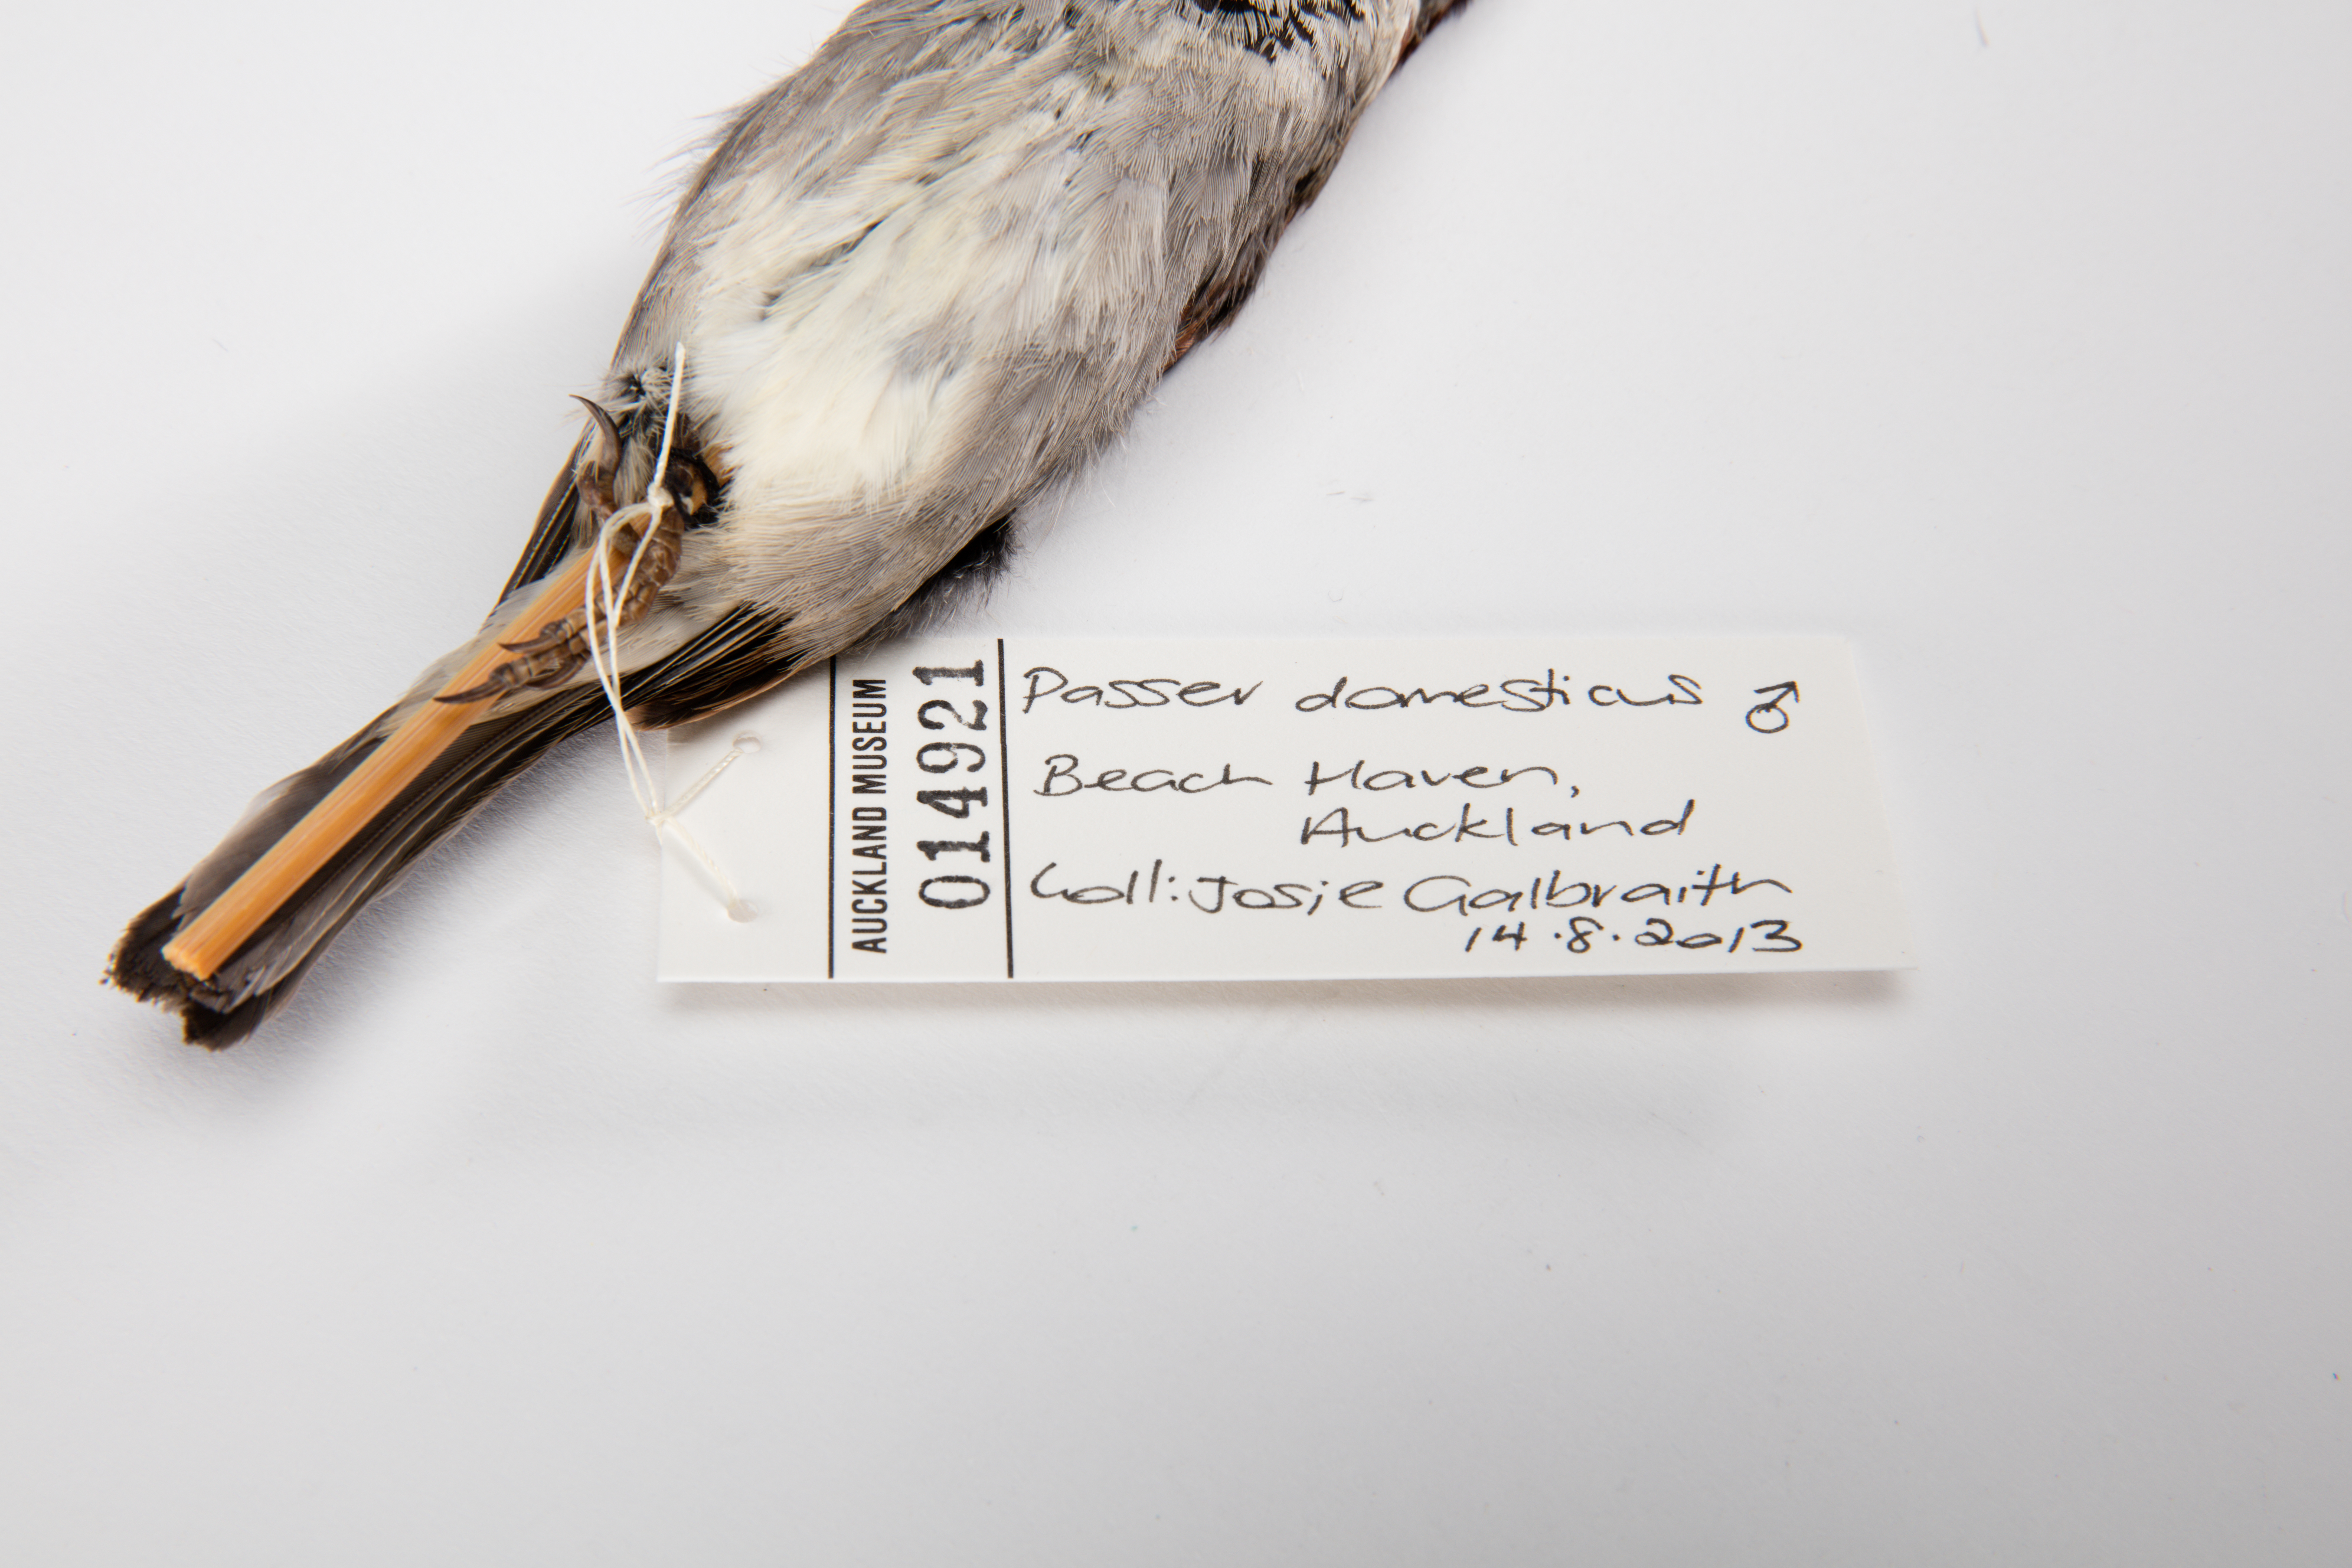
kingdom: Animalia
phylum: Chordata
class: Aves
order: Passeriformes
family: Passeridae
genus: Passer
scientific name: Passer domesticus
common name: House sparrow
